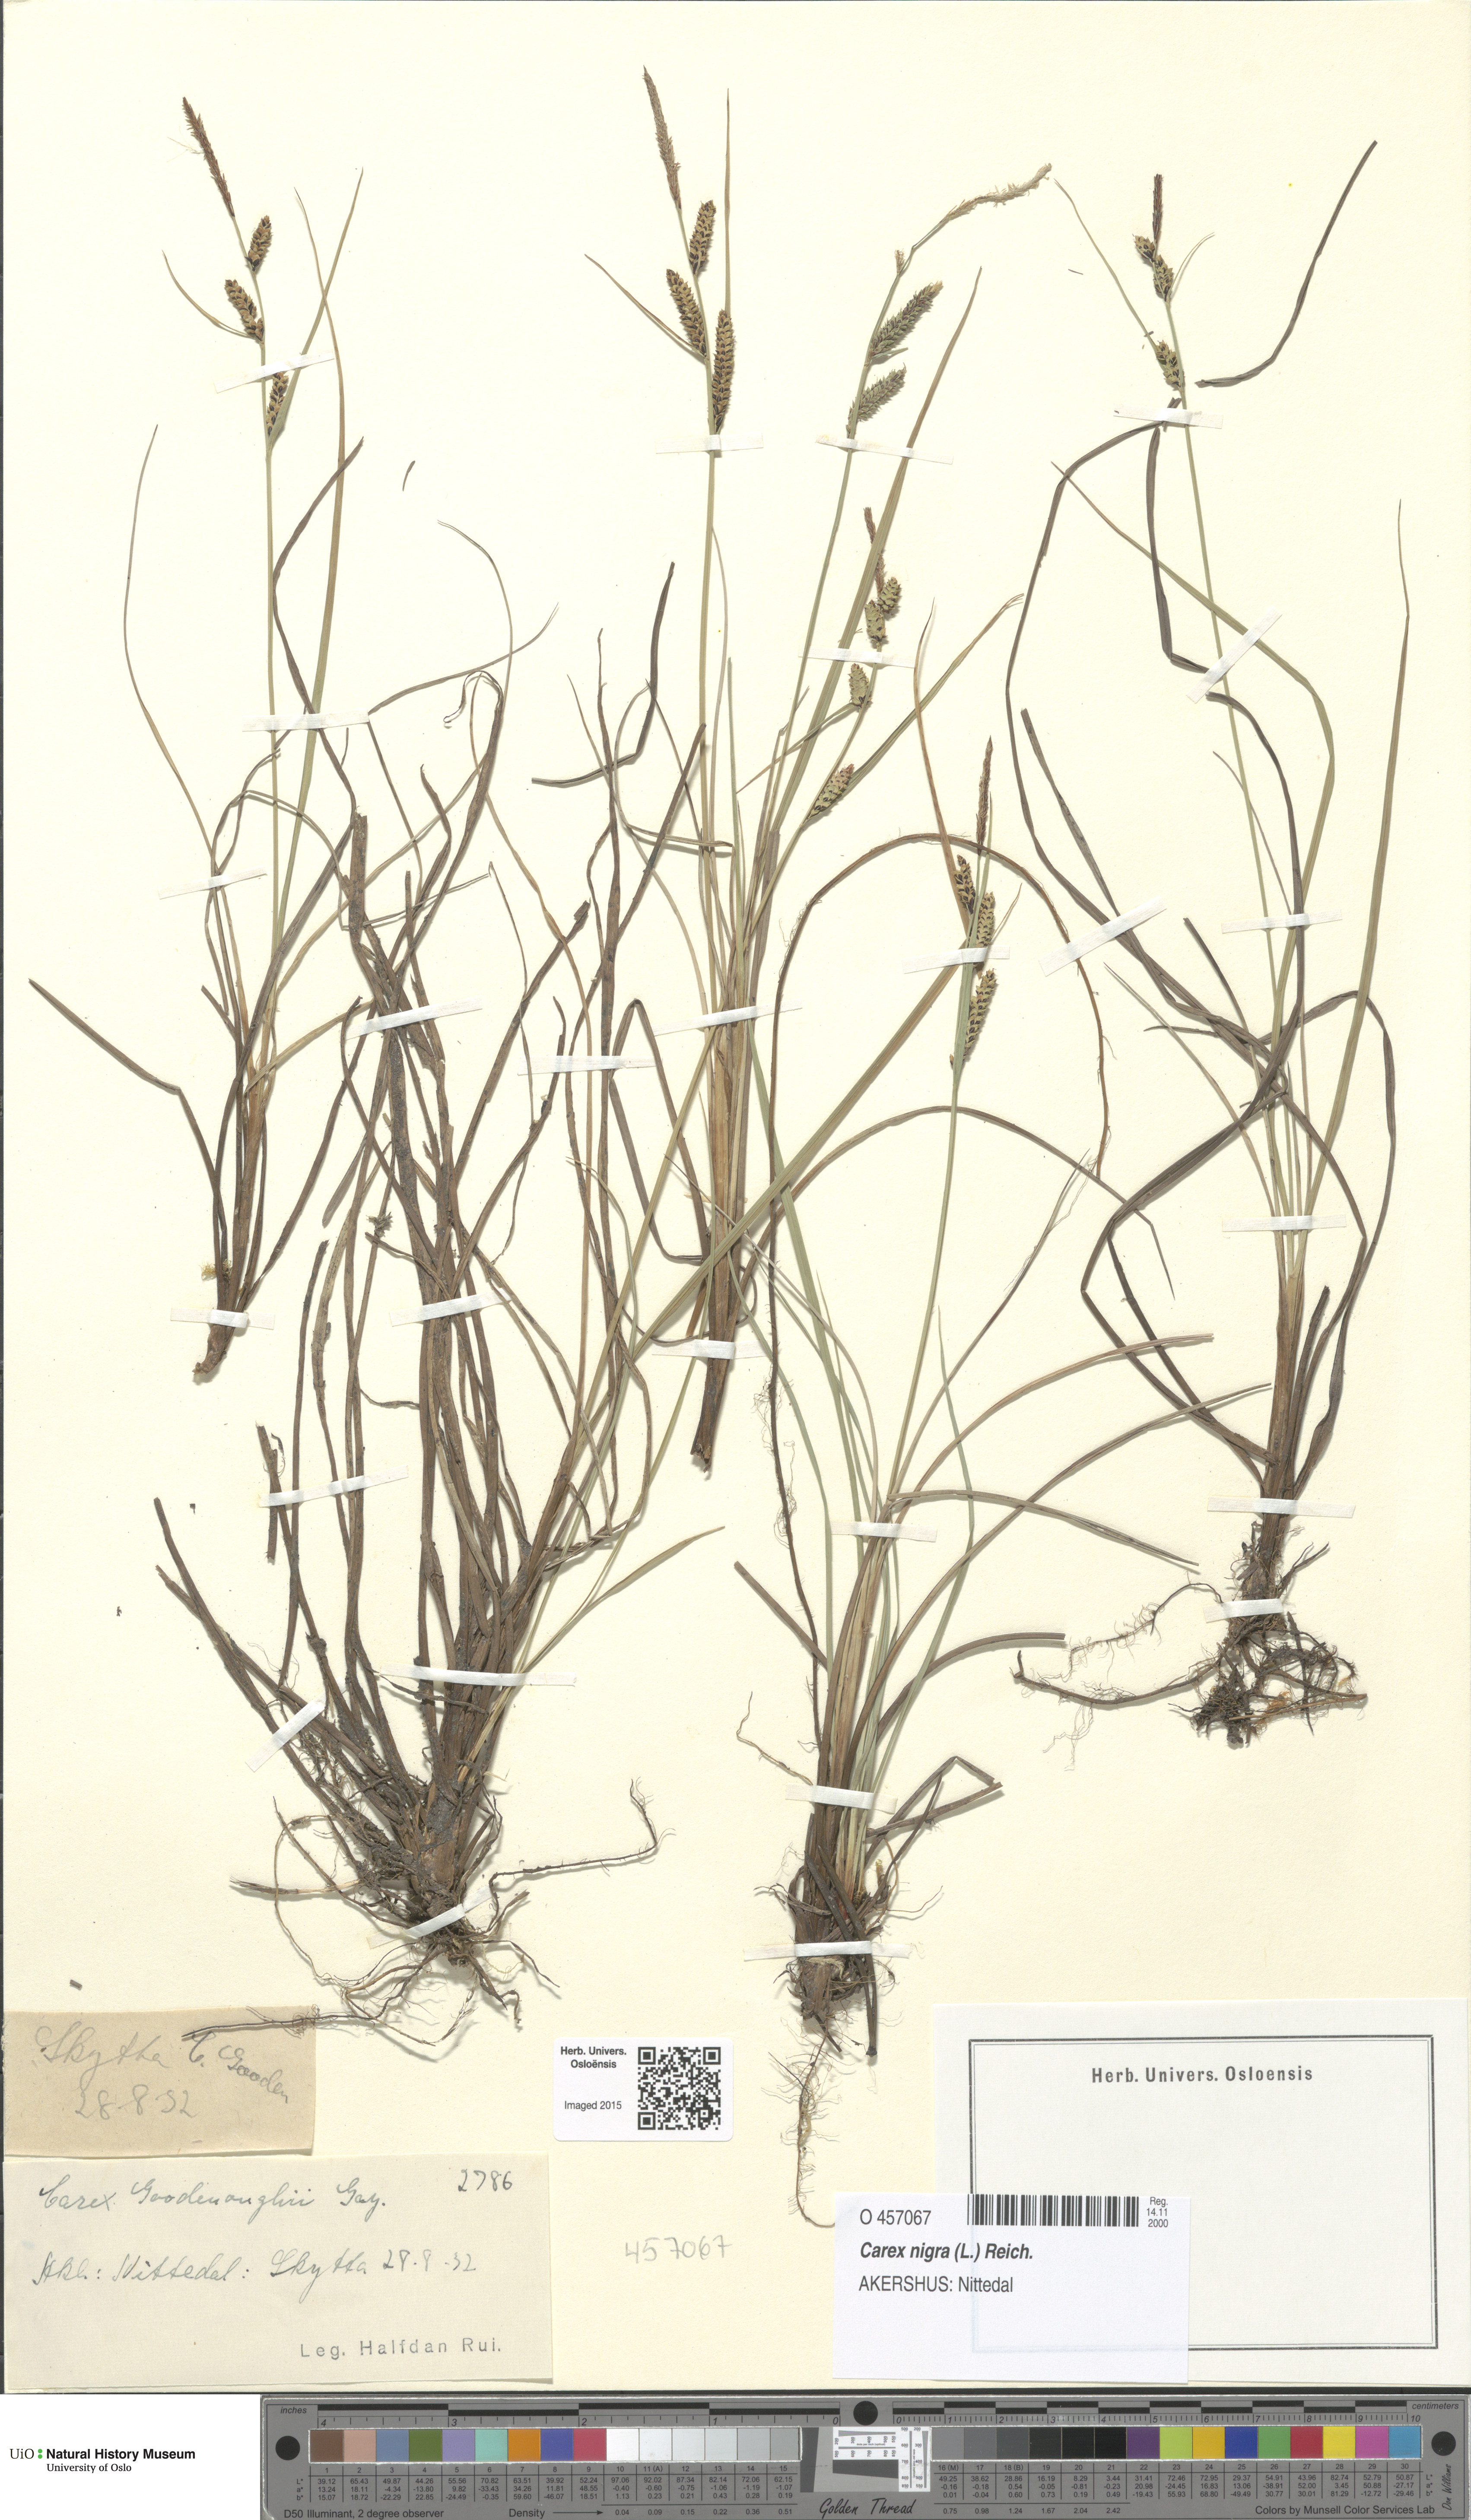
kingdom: Plantae
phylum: Tracheophyta
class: Liliopsida
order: Poales
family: Cyperaceae
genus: Carex
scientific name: Carex nigra
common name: Common sedge
